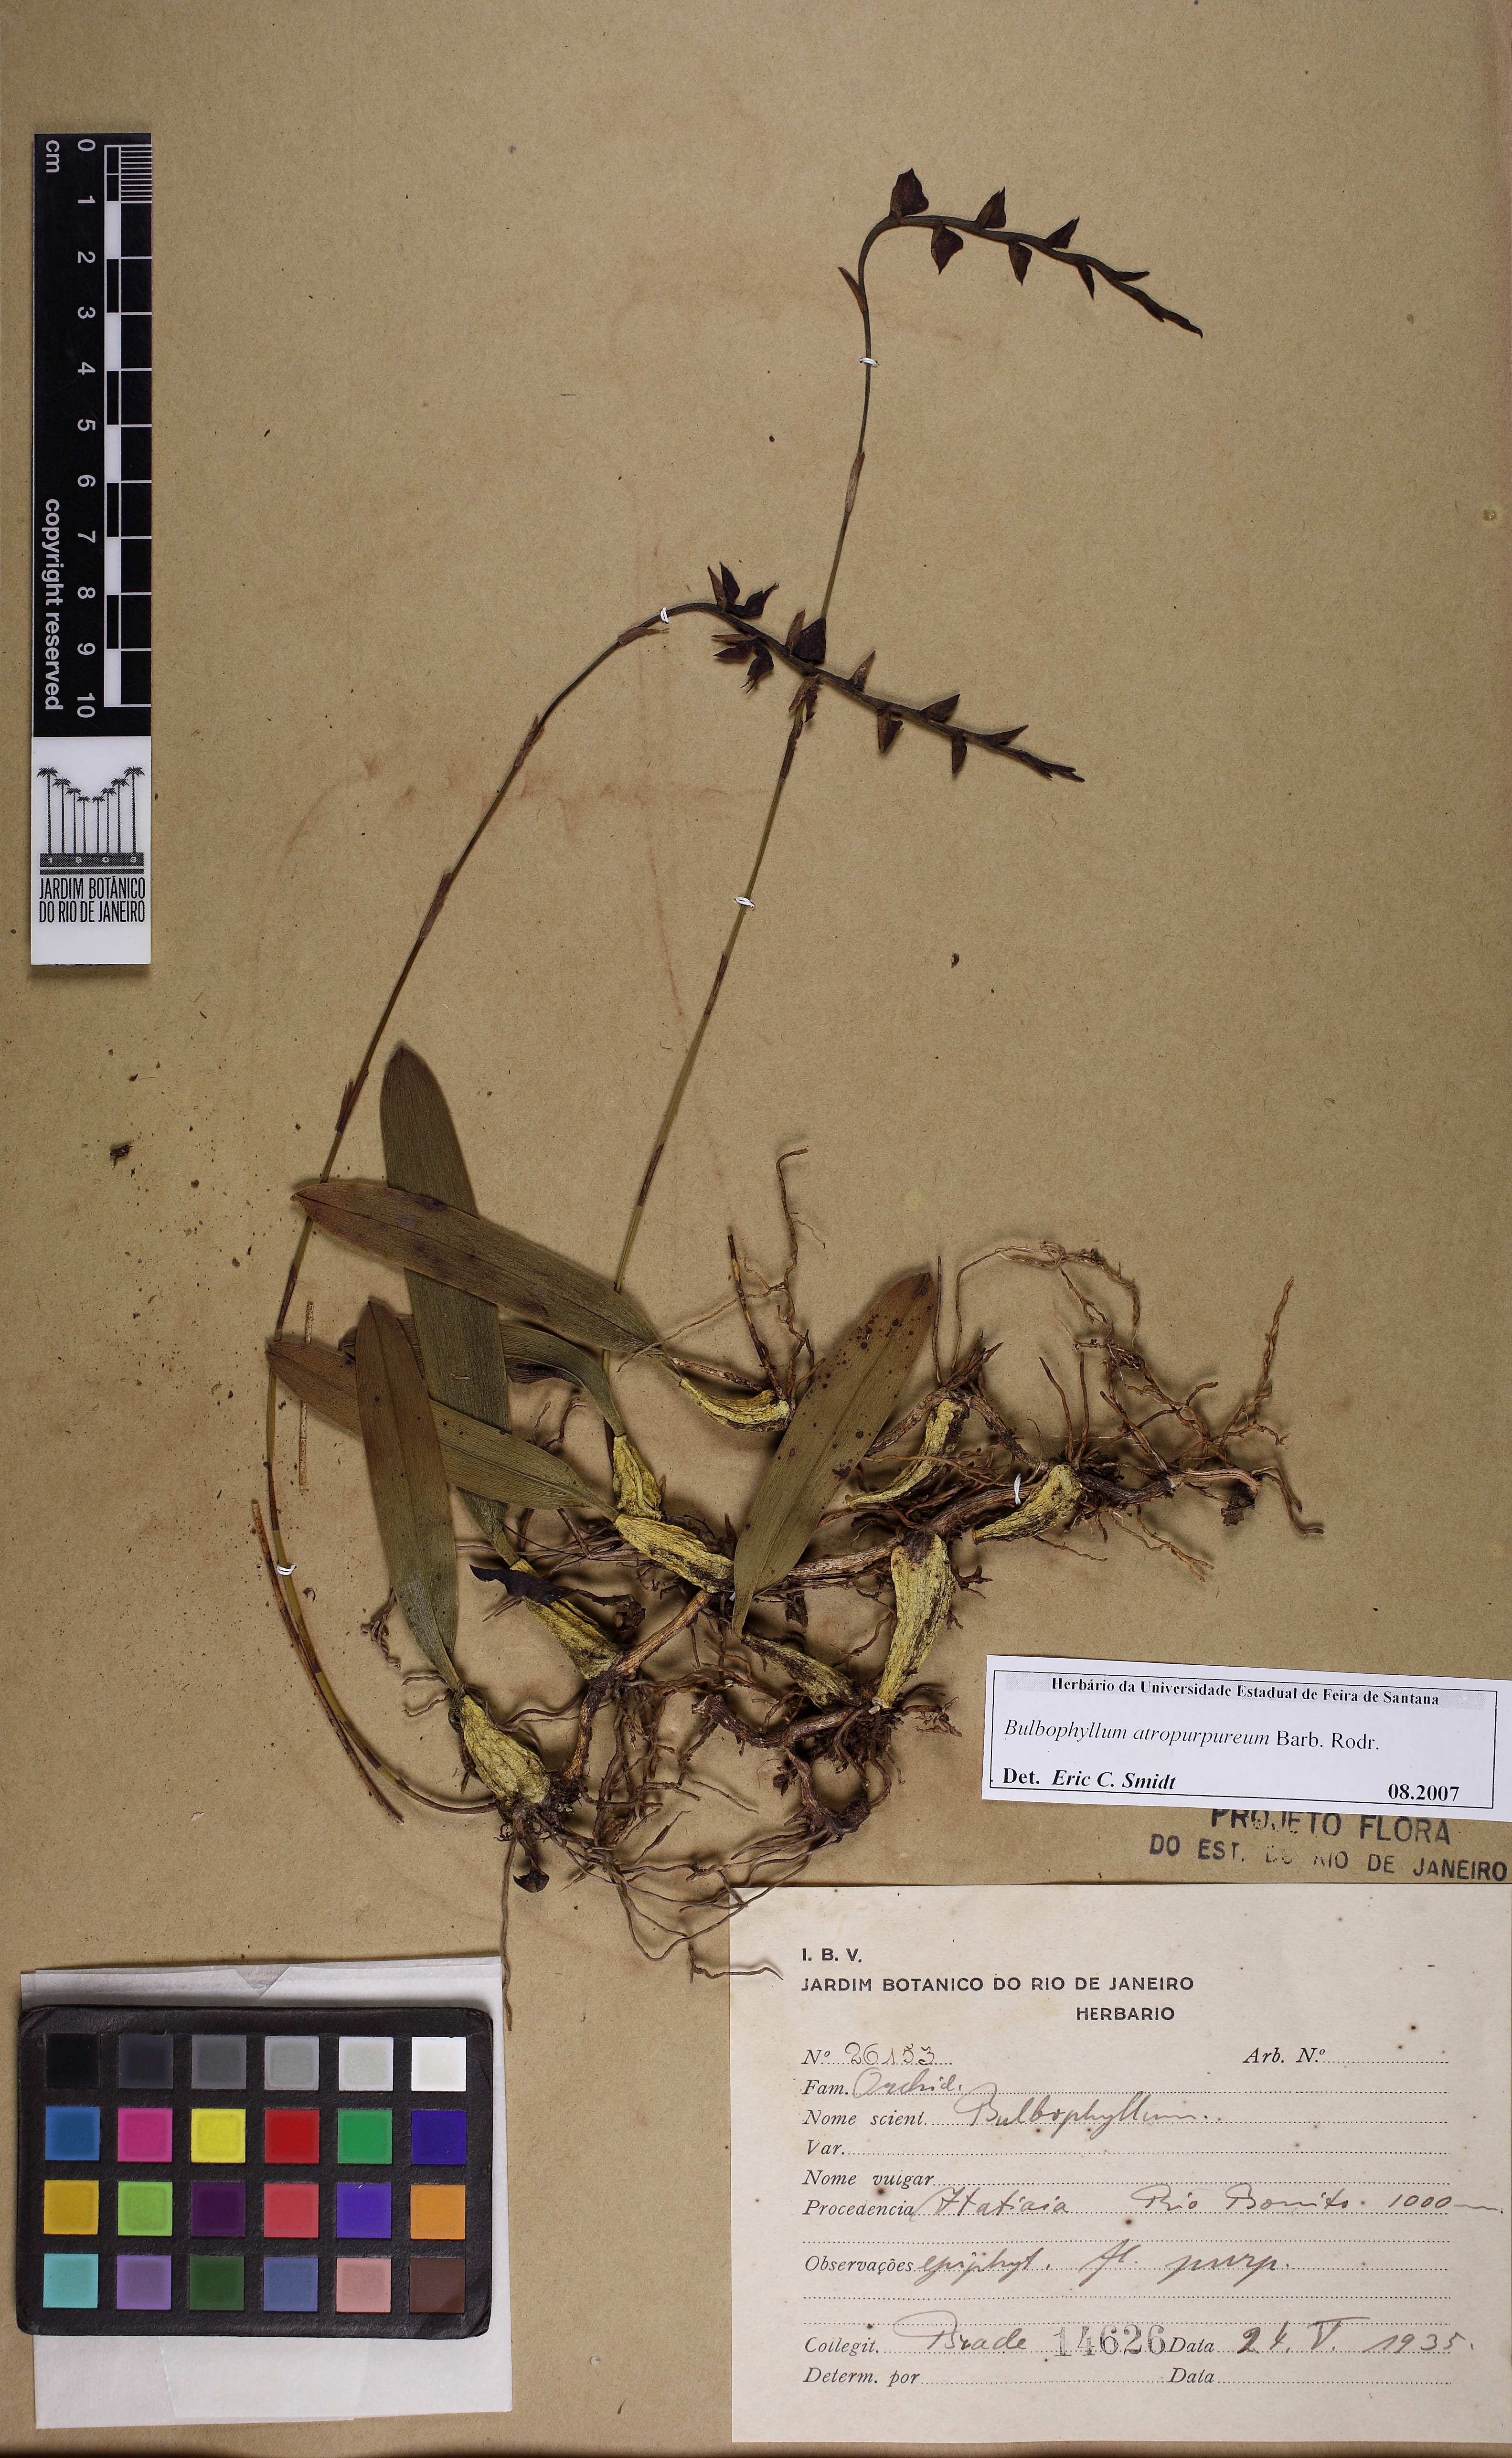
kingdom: Plantae
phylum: Tracheophyta
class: Liliopsida
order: Asparagales
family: Orchidaceae
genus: Bulbophyllum
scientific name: Bulbophyllum atropurpureum
